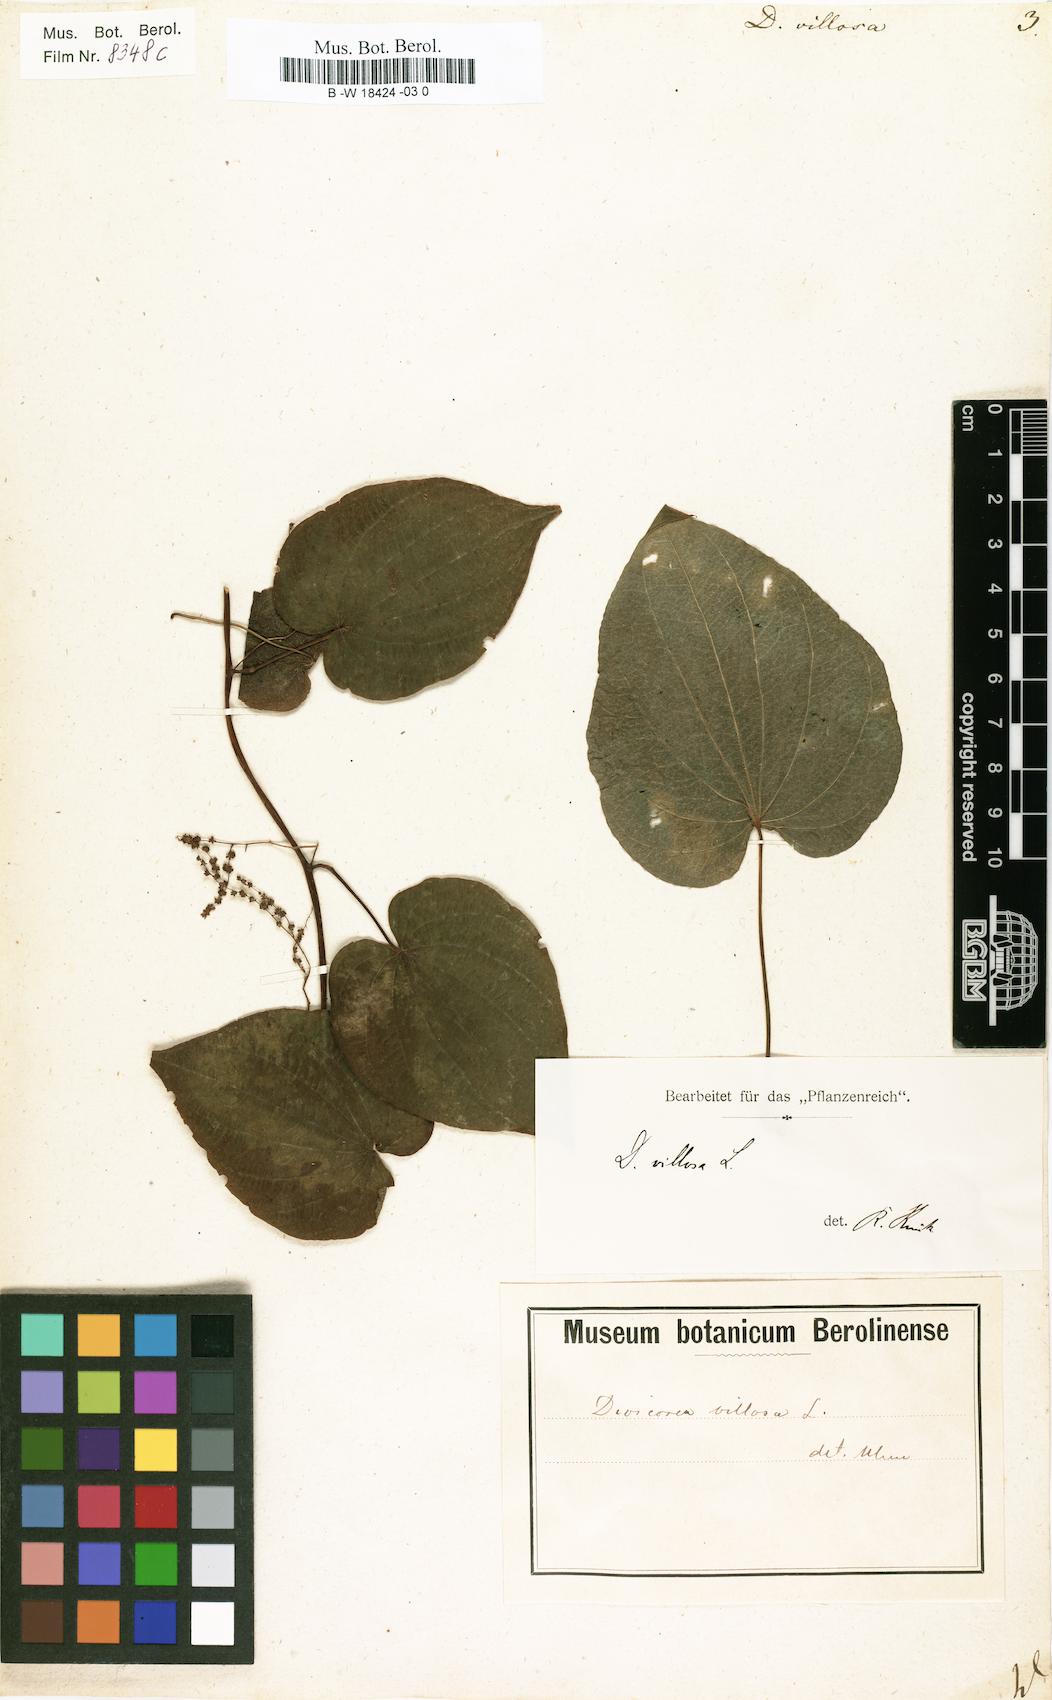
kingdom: Plantae
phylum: Tracheophyta
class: Liliopsida
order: Dioscoreales
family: Dioscoreaceae
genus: Dioscorea
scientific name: Dioscorea villosa
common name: Wild yam
